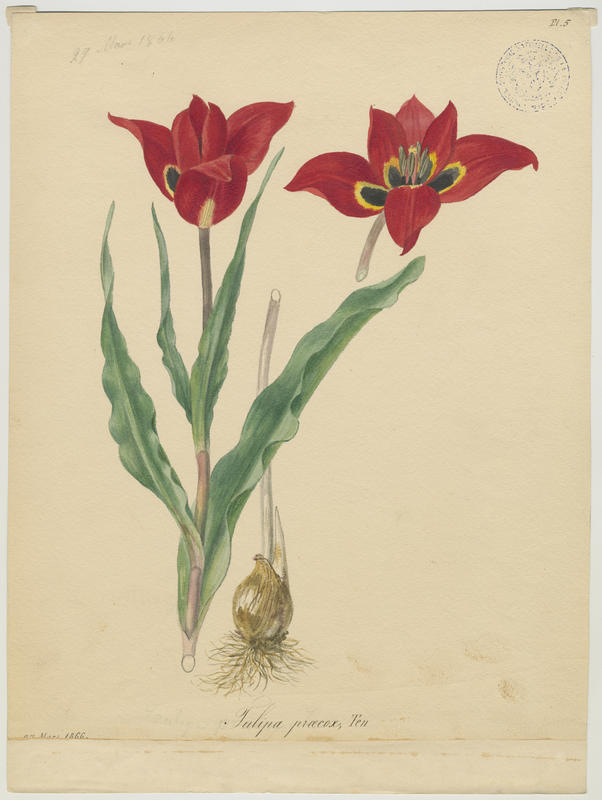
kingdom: Plantae
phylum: Tracheophyta
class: Liliopsida
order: Liliales
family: Liliaceae
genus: Tulipa
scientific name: Tulipa agenensis
